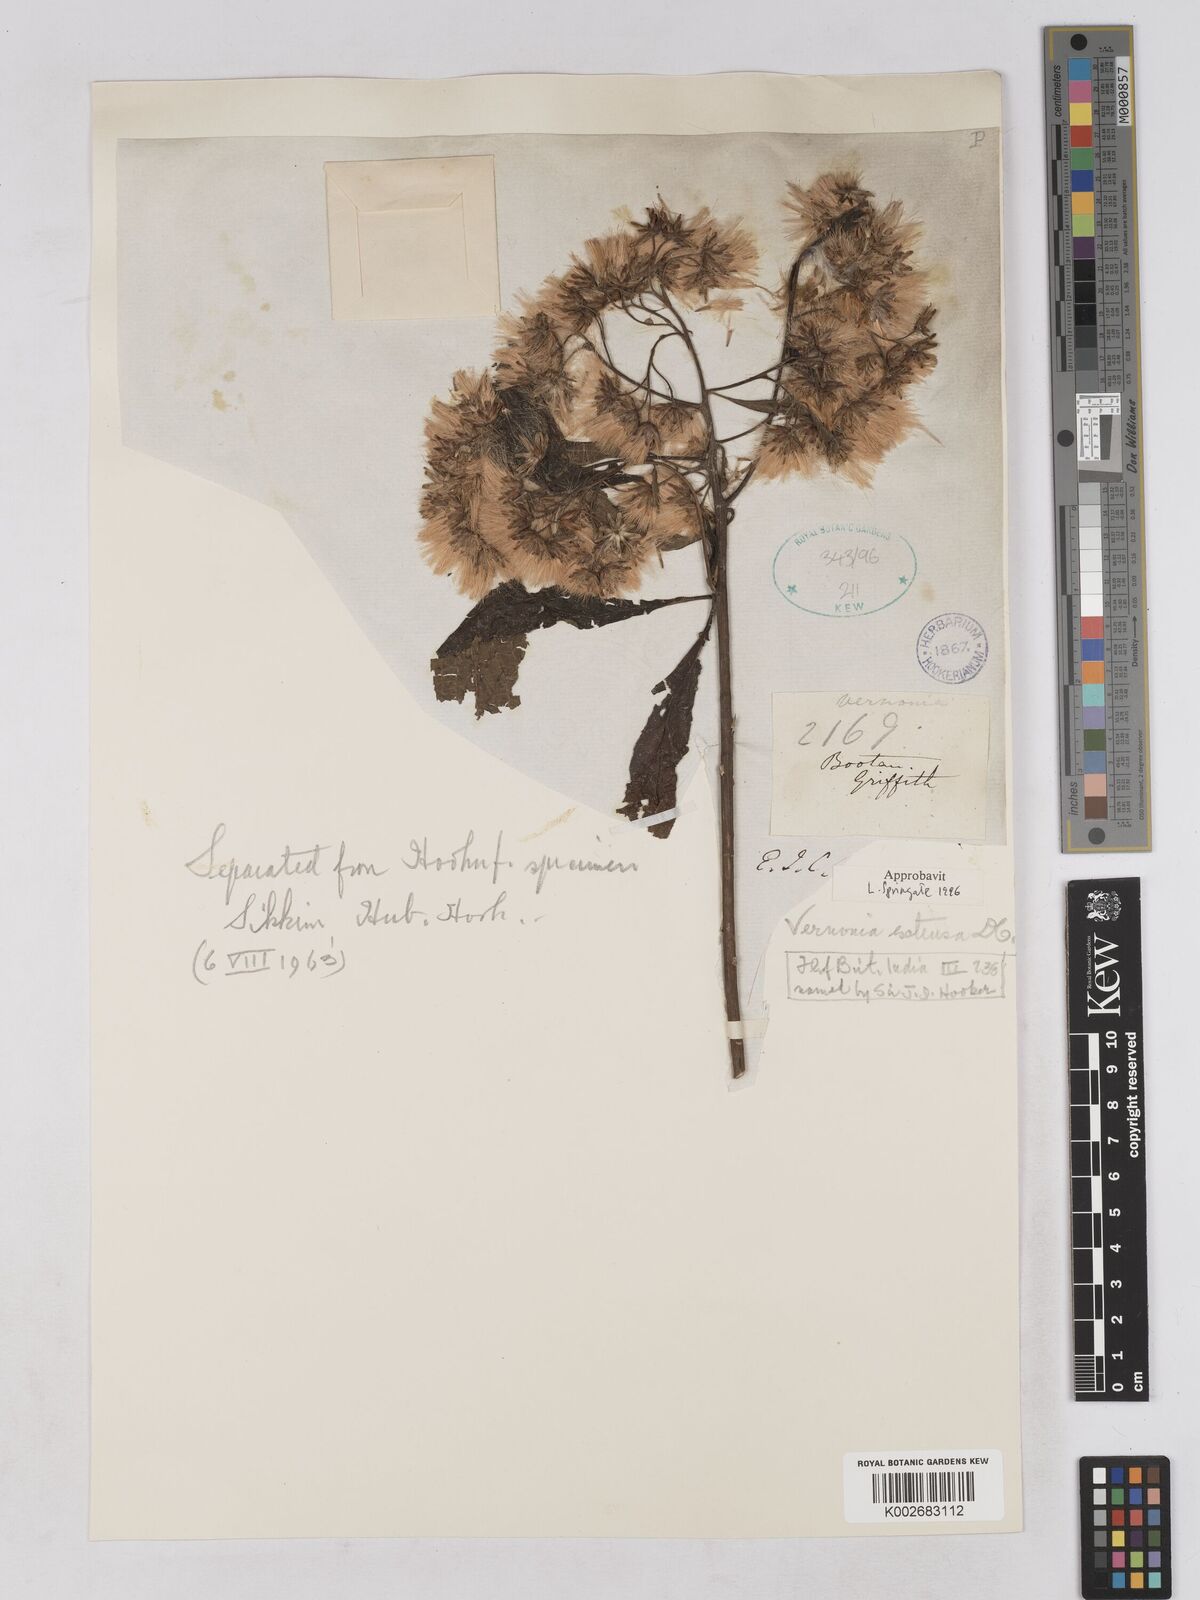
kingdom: Plantae
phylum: Tracheophyta
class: Magnoliopsida
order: Asterales
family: Asteraceae
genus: Gymnanthemum
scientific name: Gymnanthemum extensum
